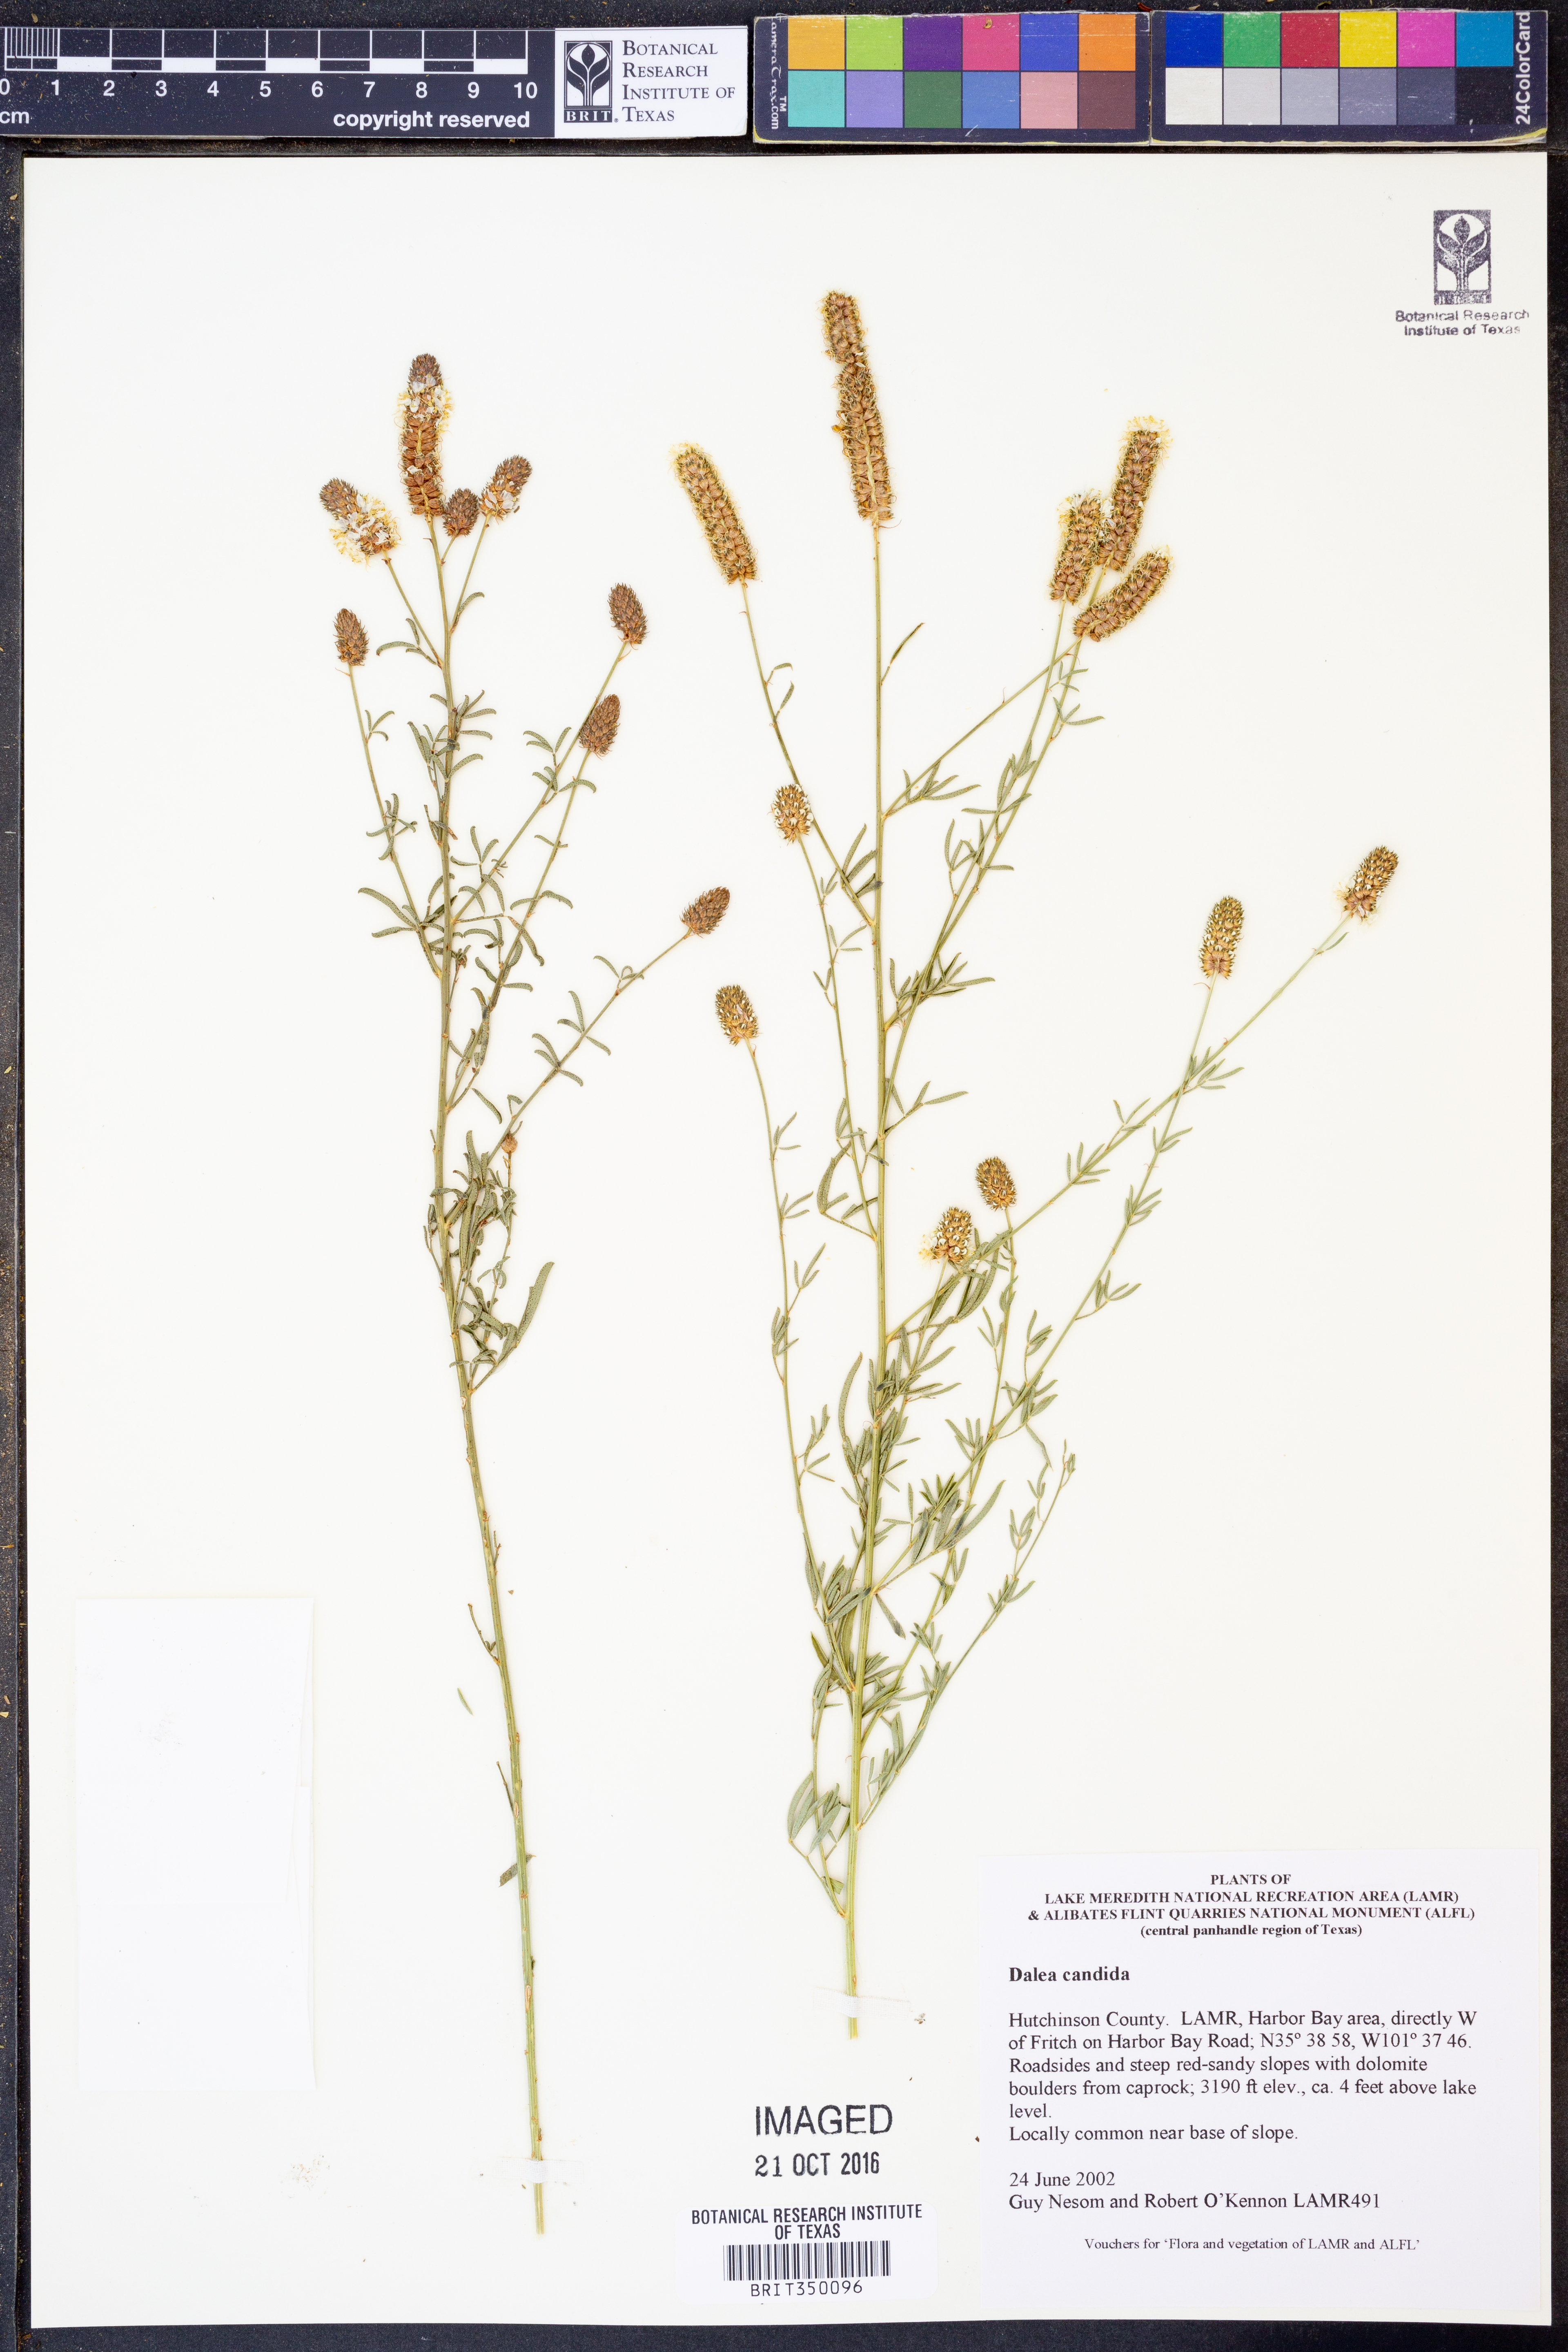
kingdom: Plantae
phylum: Tracheophyta
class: Magnoliopsida
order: Fabales
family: Fabaceae
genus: Dalea
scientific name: Dalea candida
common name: White prairie-clover
